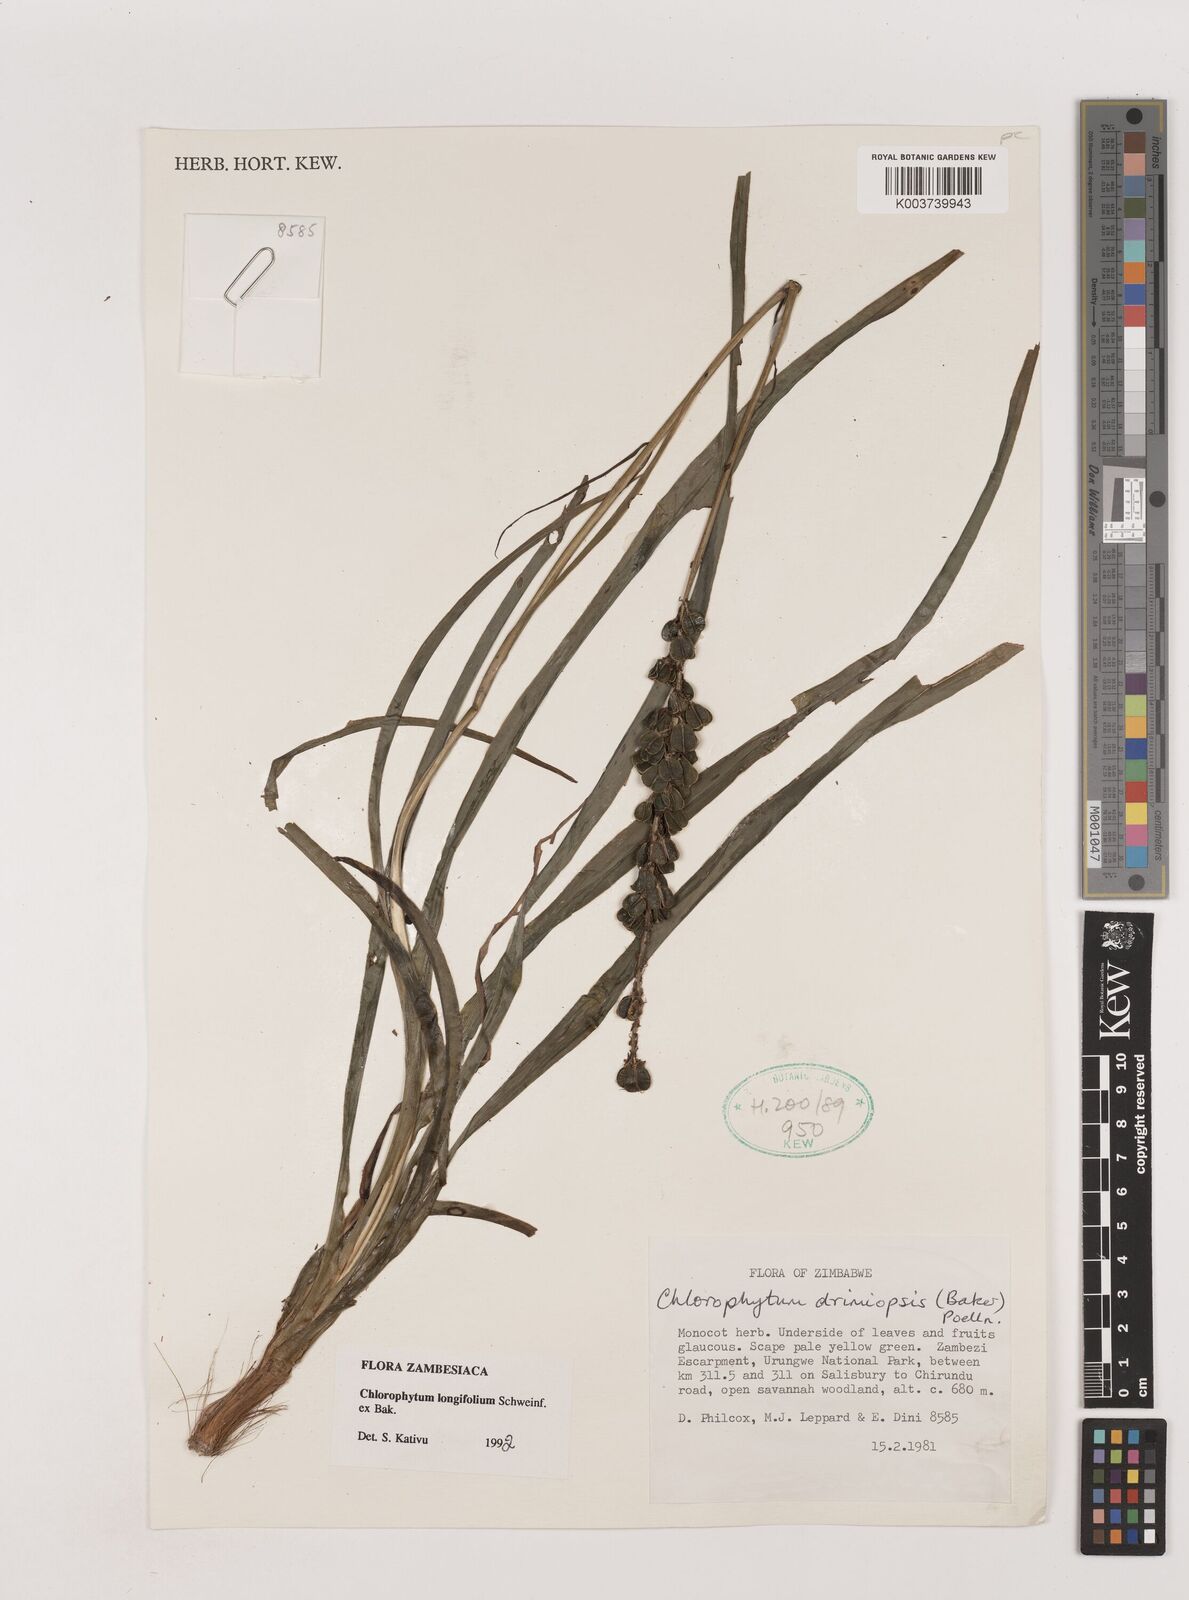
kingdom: Plantae
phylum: Tracheophyta
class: Liliopsida
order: Asparagales
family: Asparagaceae
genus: Chlorophytum
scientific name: Chlorophytum longifolium
